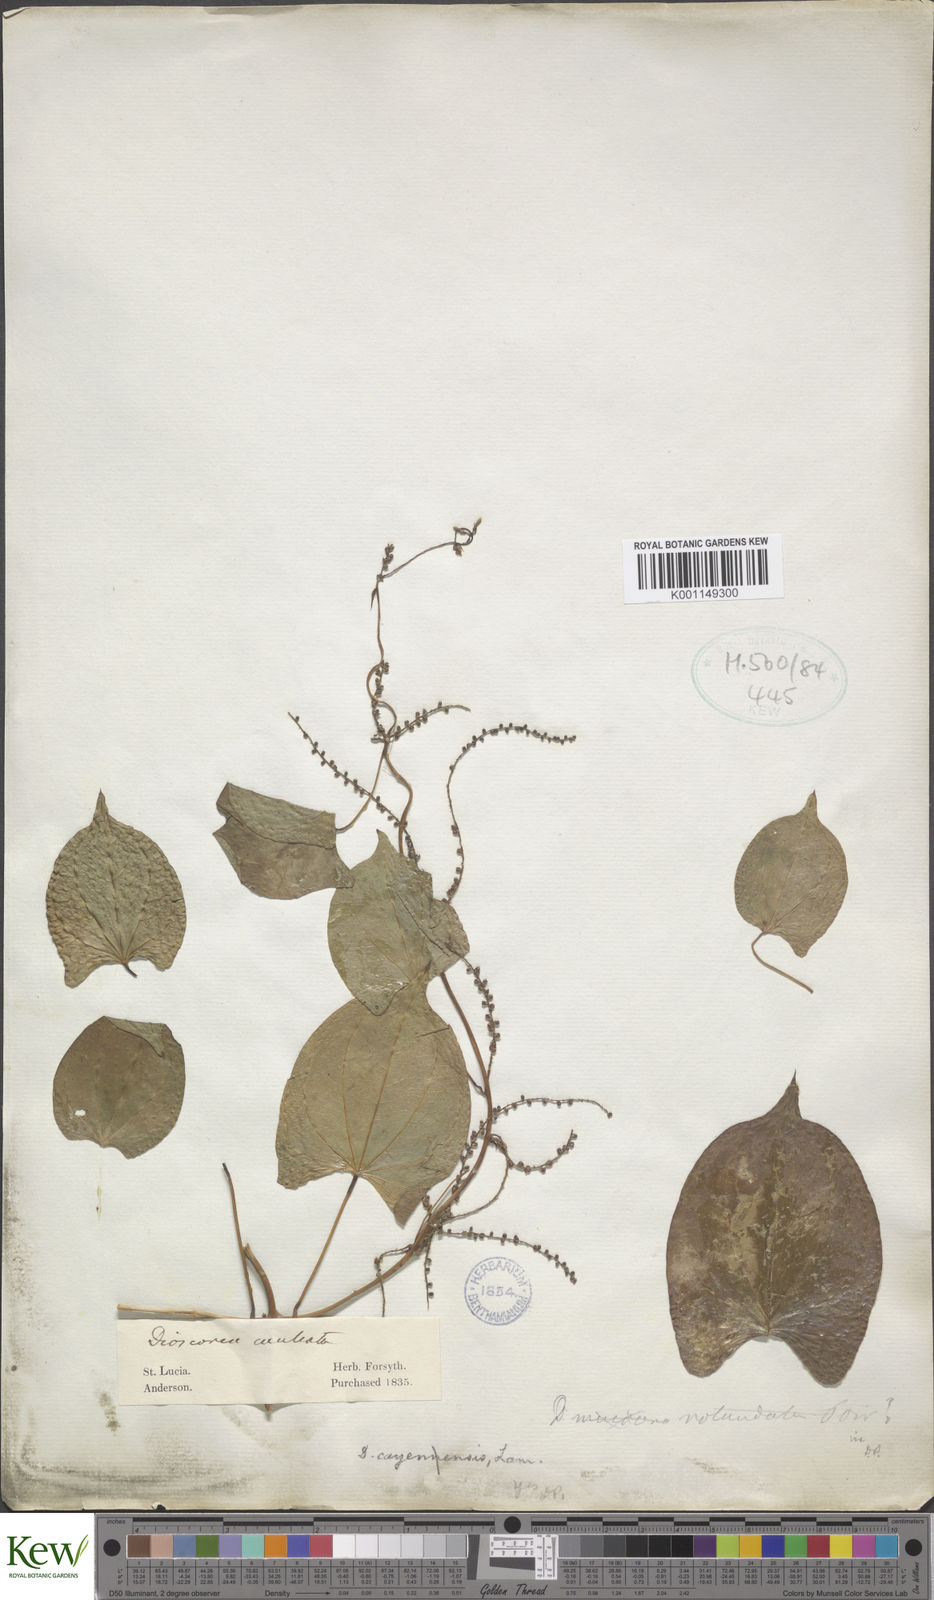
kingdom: Plantae
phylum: Tracheophyta
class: Liliopsida
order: Dioscoreales
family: Dioscoreaceae
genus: Dioscorea
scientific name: Dioscorea cayenensis
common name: Attoto yam
